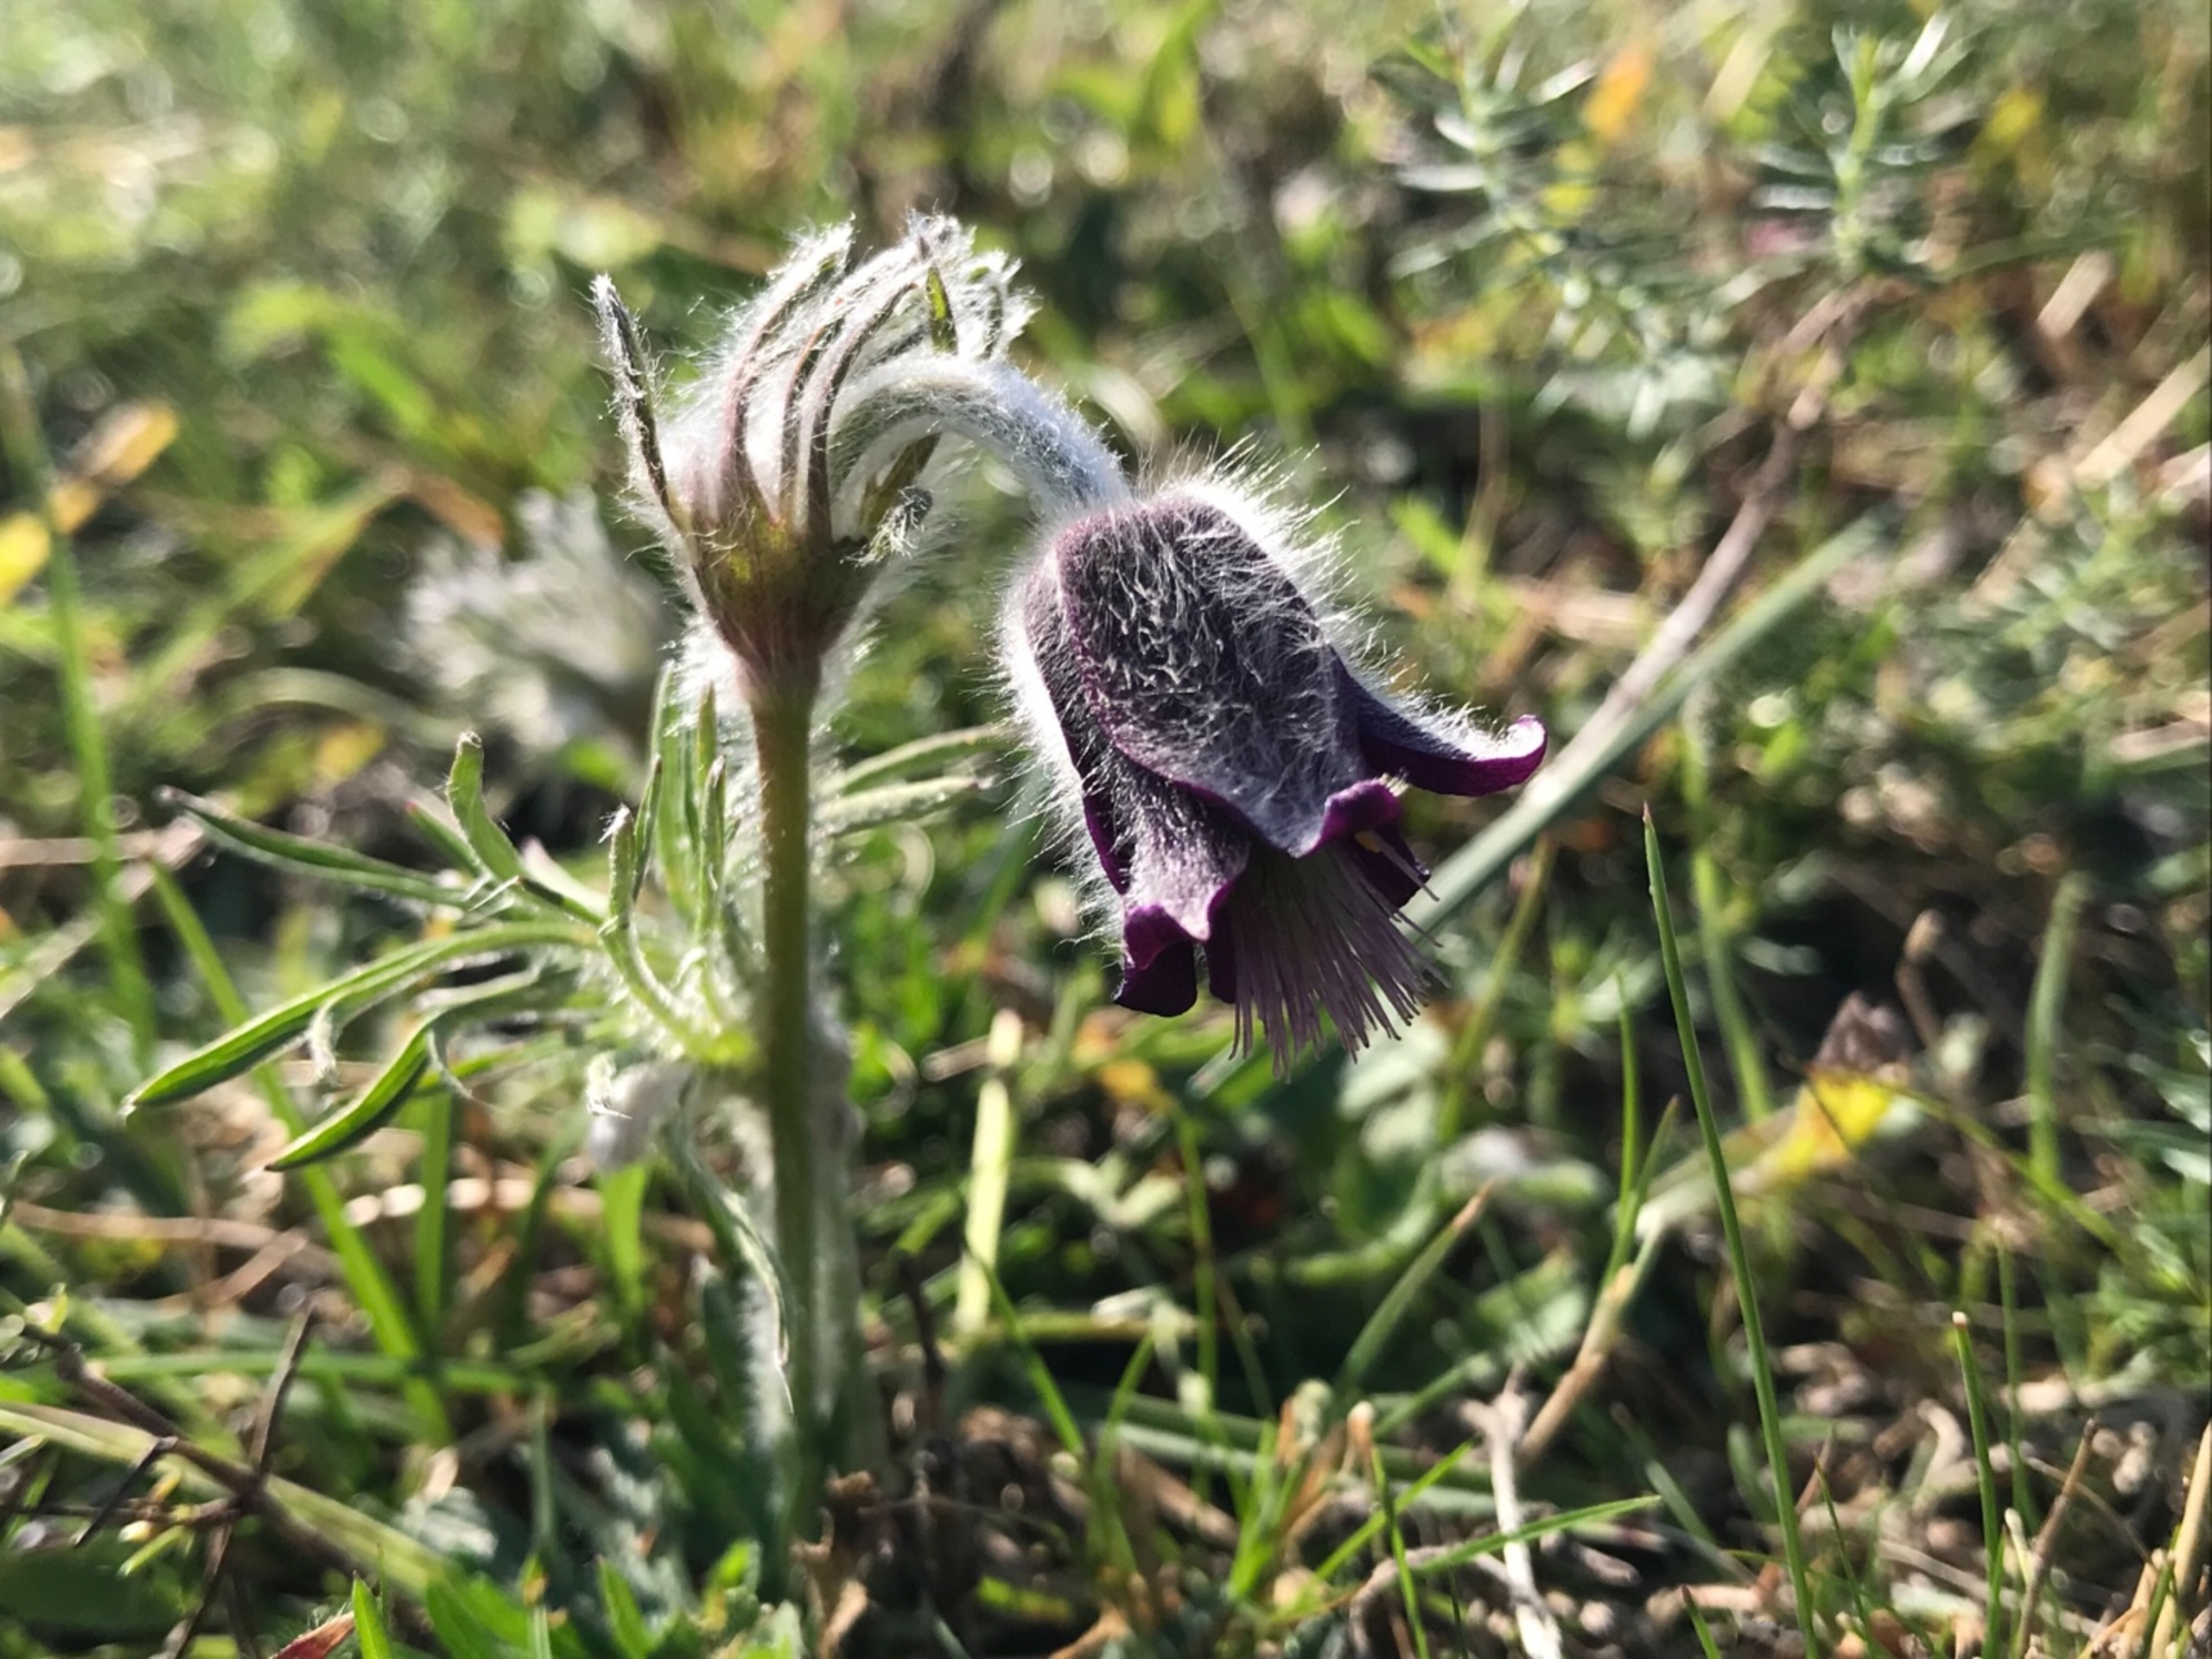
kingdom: Plantae
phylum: Tracheophyta
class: Magnoliopsida
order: Ranunculales
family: Ranunculaceae
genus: Pulsatilla
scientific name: Pulsatilla pratensis
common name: Nikkende kobjælde
